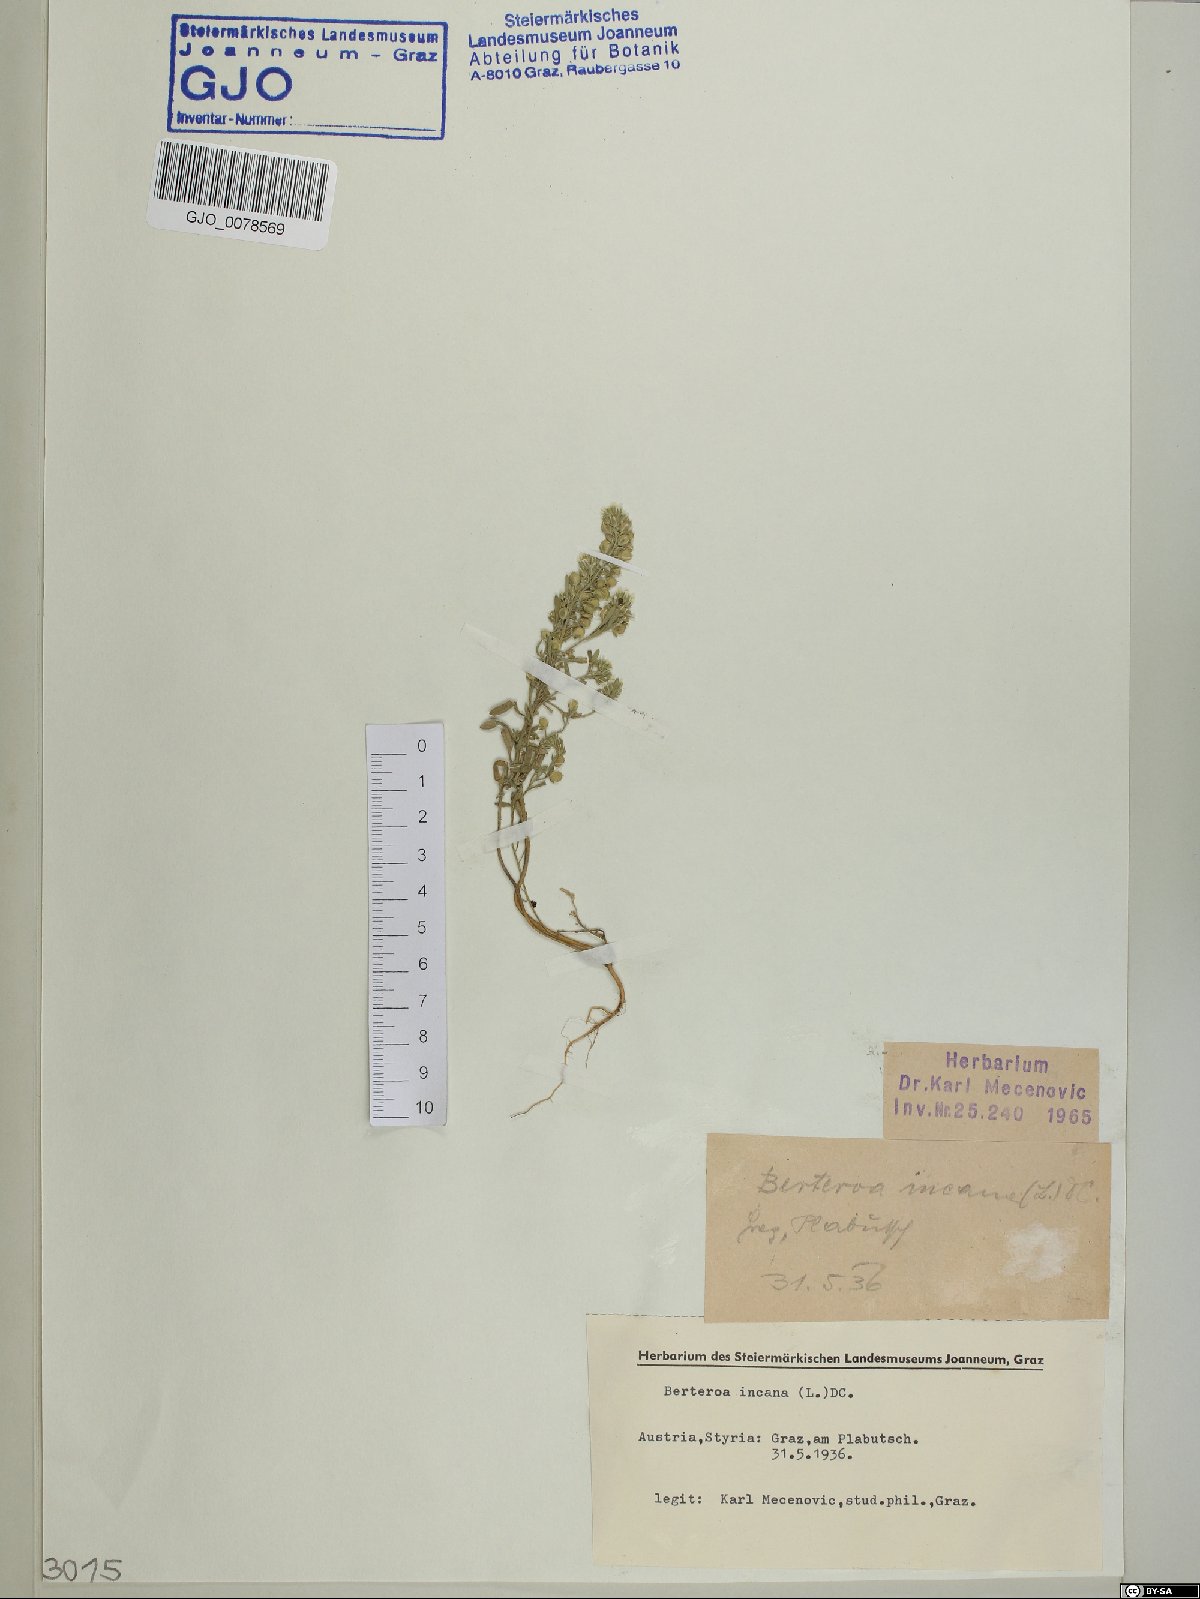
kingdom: Plantae
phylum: Tracheophyta
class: Magnoliopsida
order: Brassicales
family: Brassicaceae
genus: Berteroa
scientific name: Berteroa incana
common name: Hoary alison
